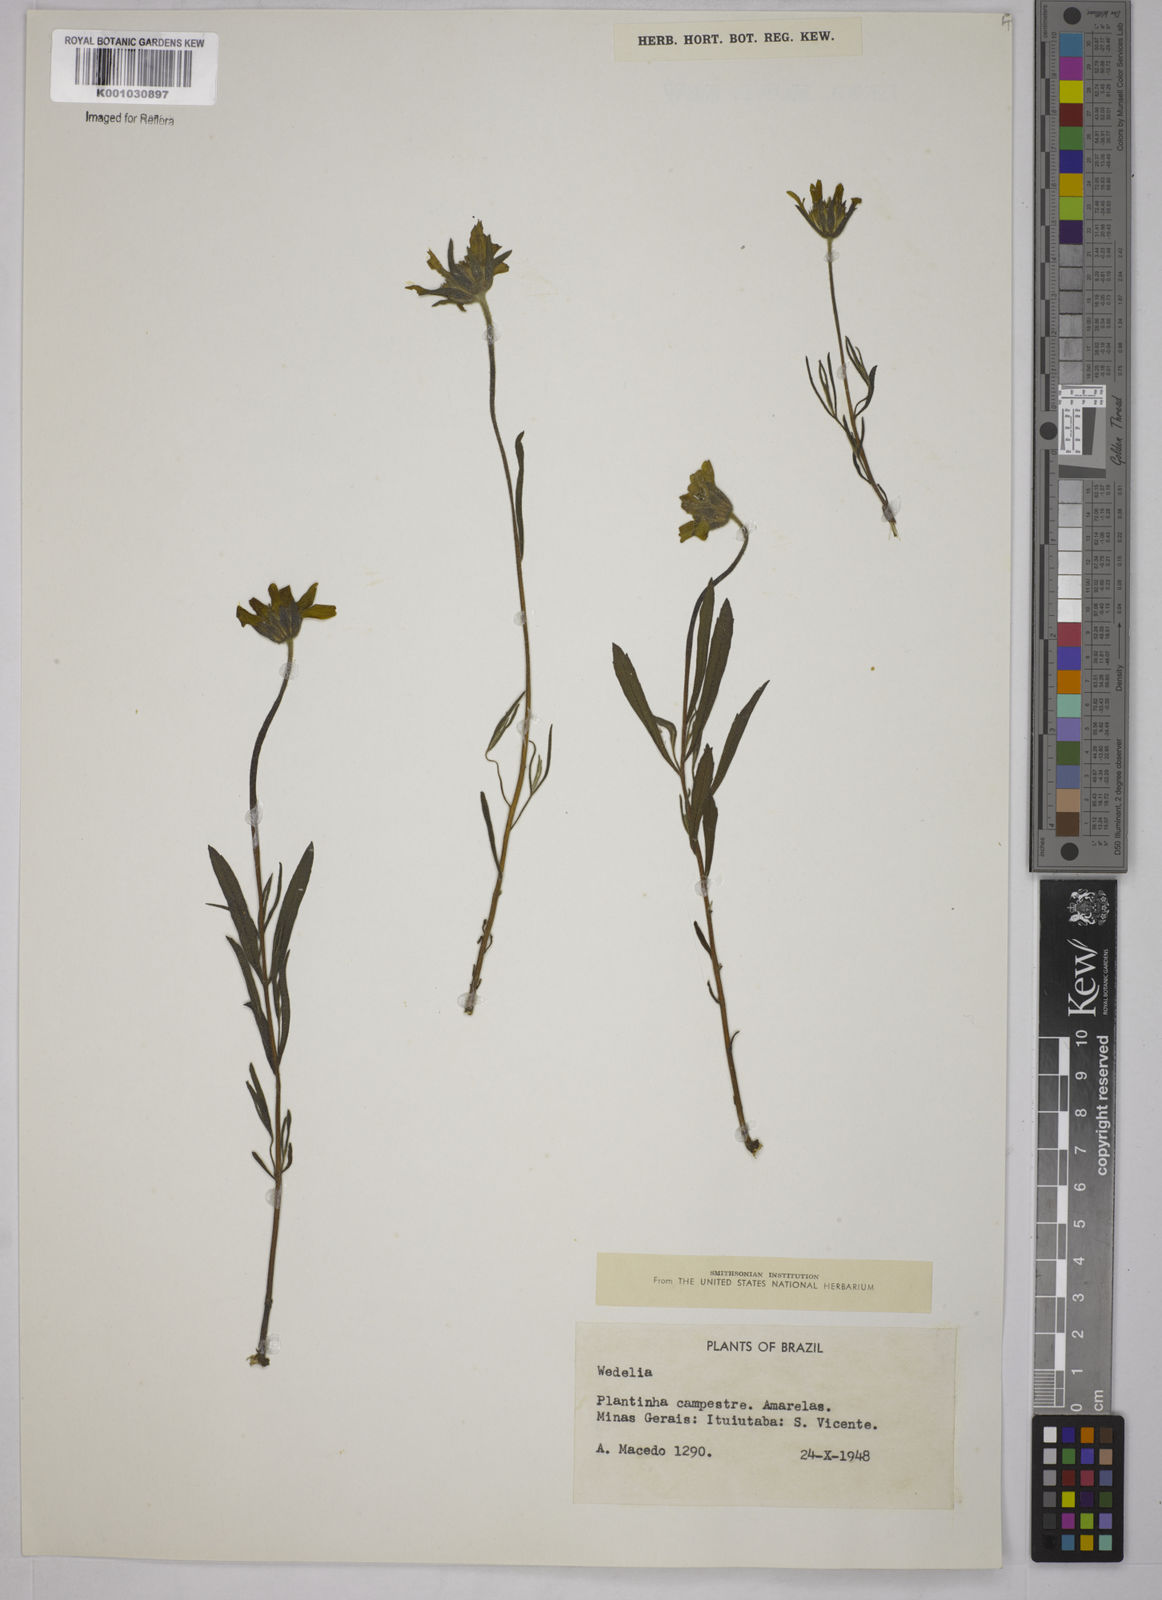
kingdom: Plantae
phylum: Tracheophyta
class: Magnoliopsida
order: Asterales
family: Asteraceae
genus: Wedelia
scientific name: Wedelia
